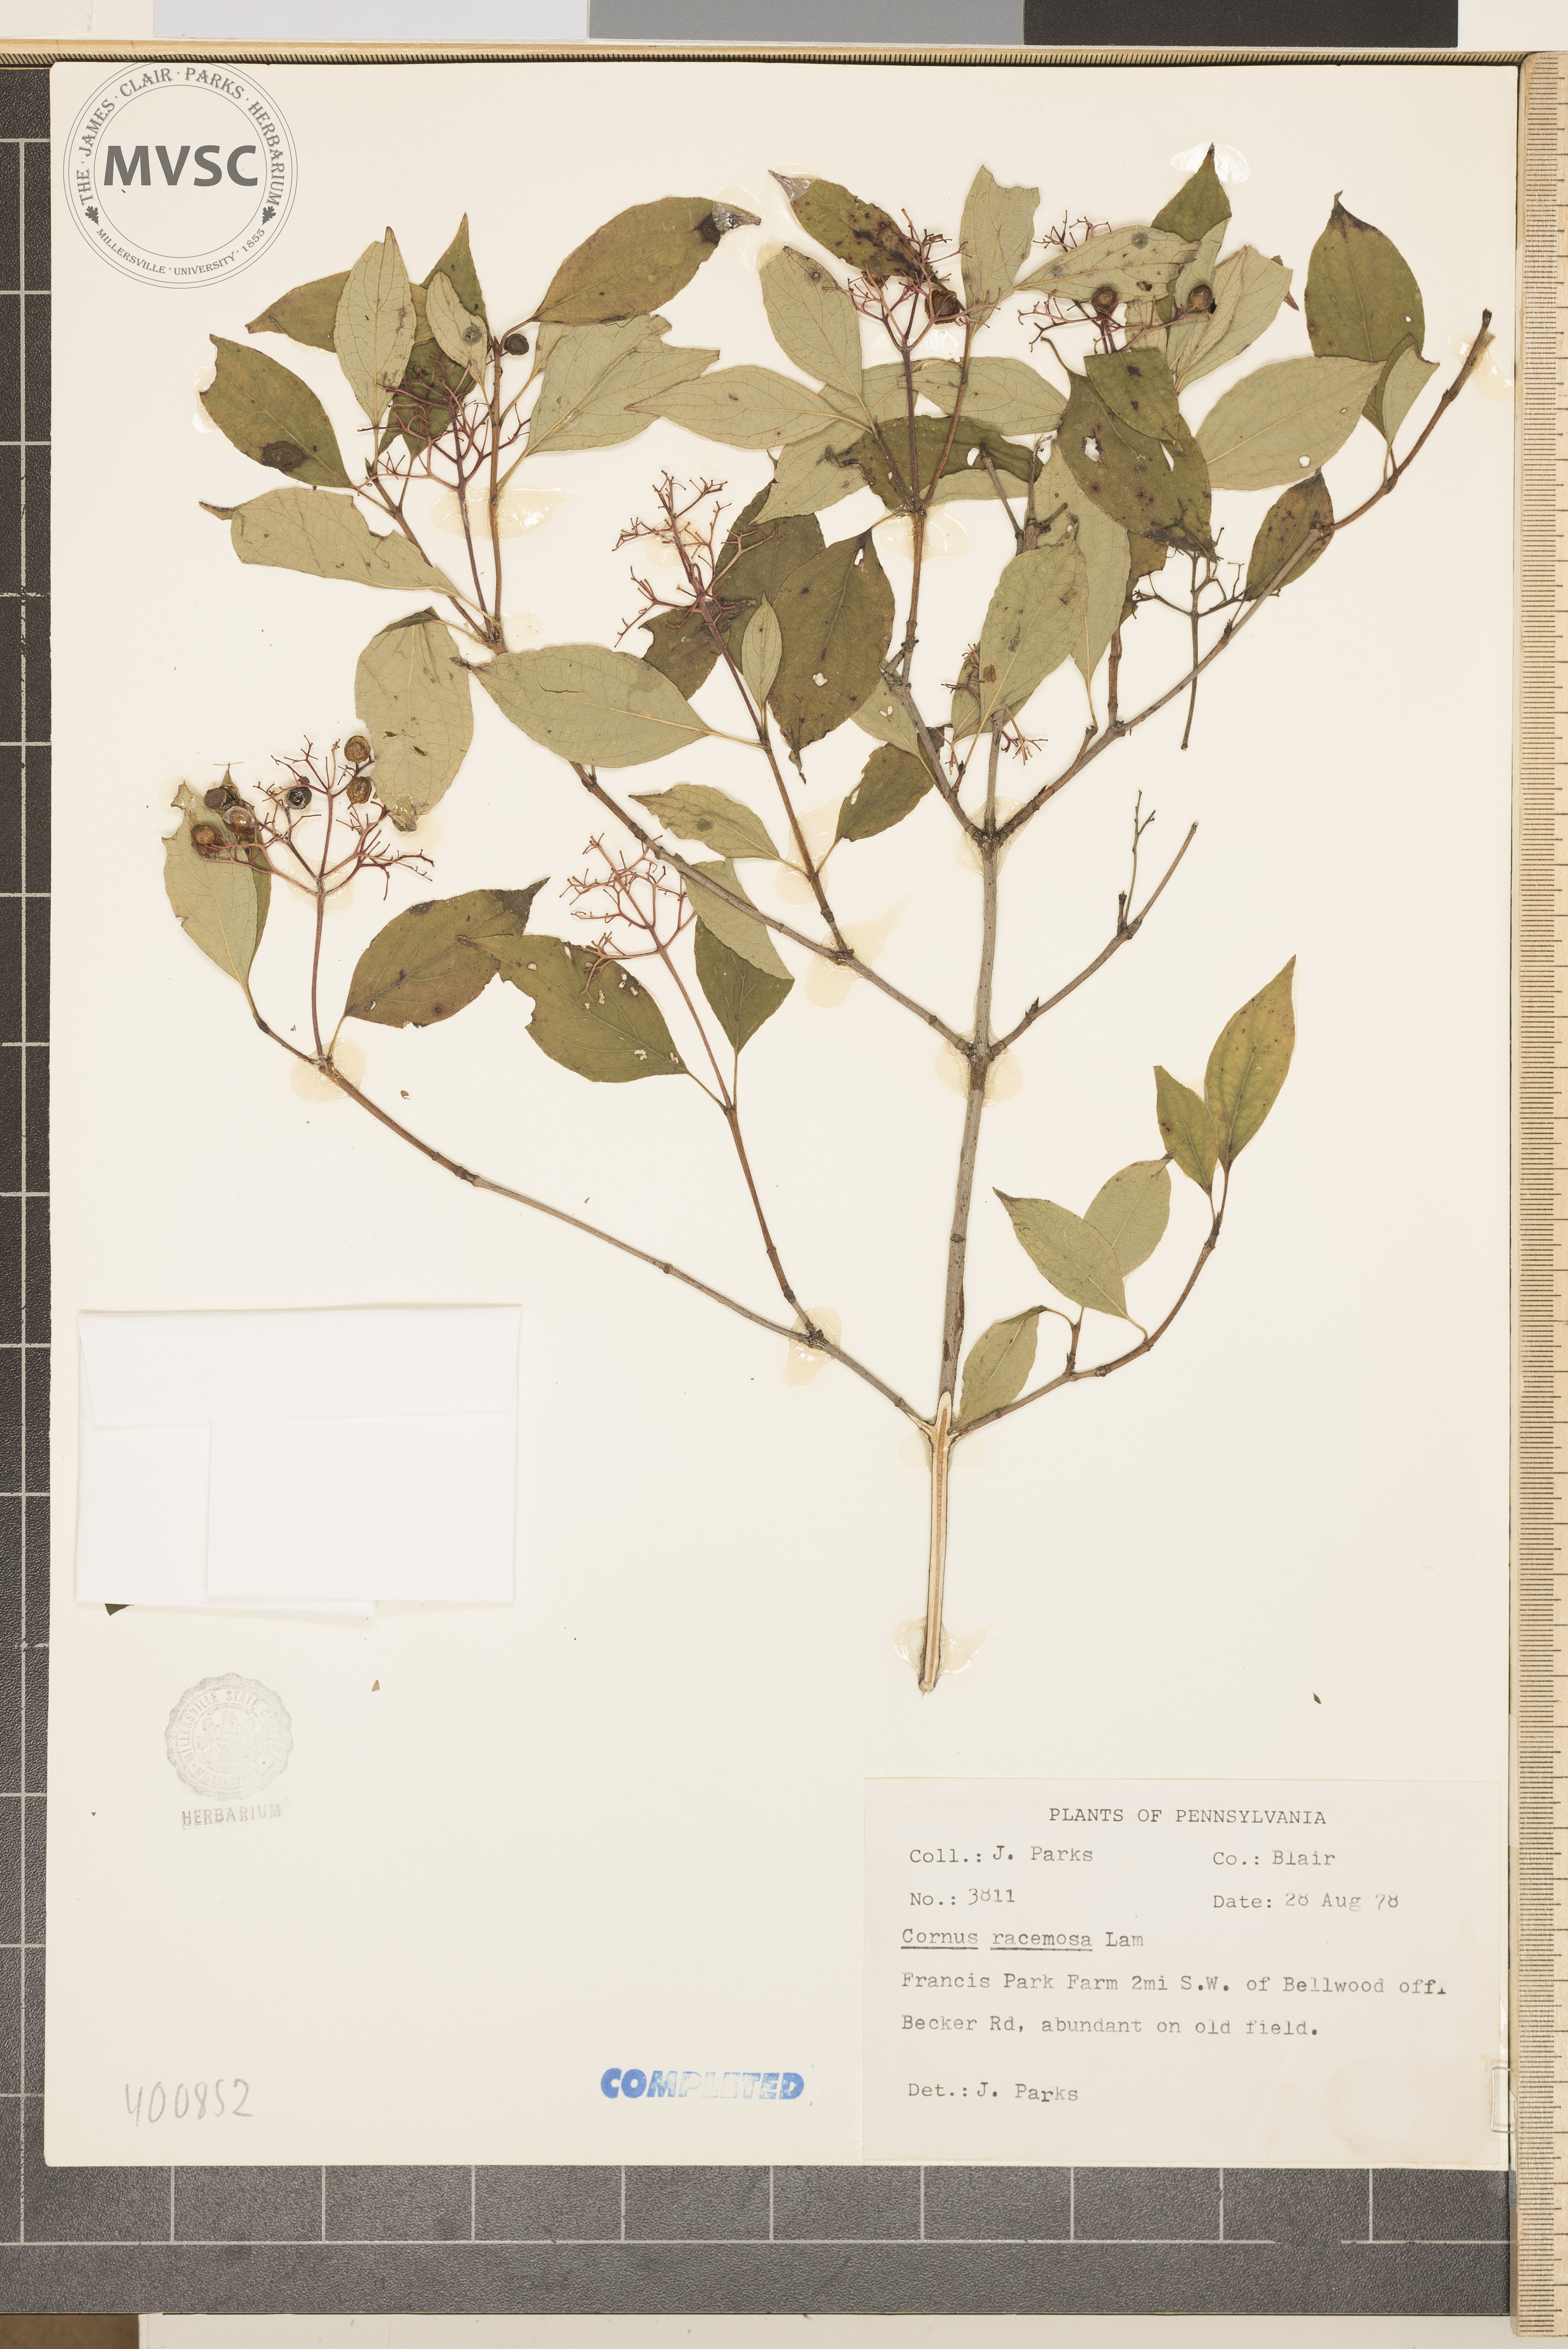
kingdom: Plantae
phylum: Tracheophyta
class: Magnoliopsida
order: Cornales
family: Cornaceae
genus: Cornus
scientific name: Cornus racemosa
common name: Gray dogwood
